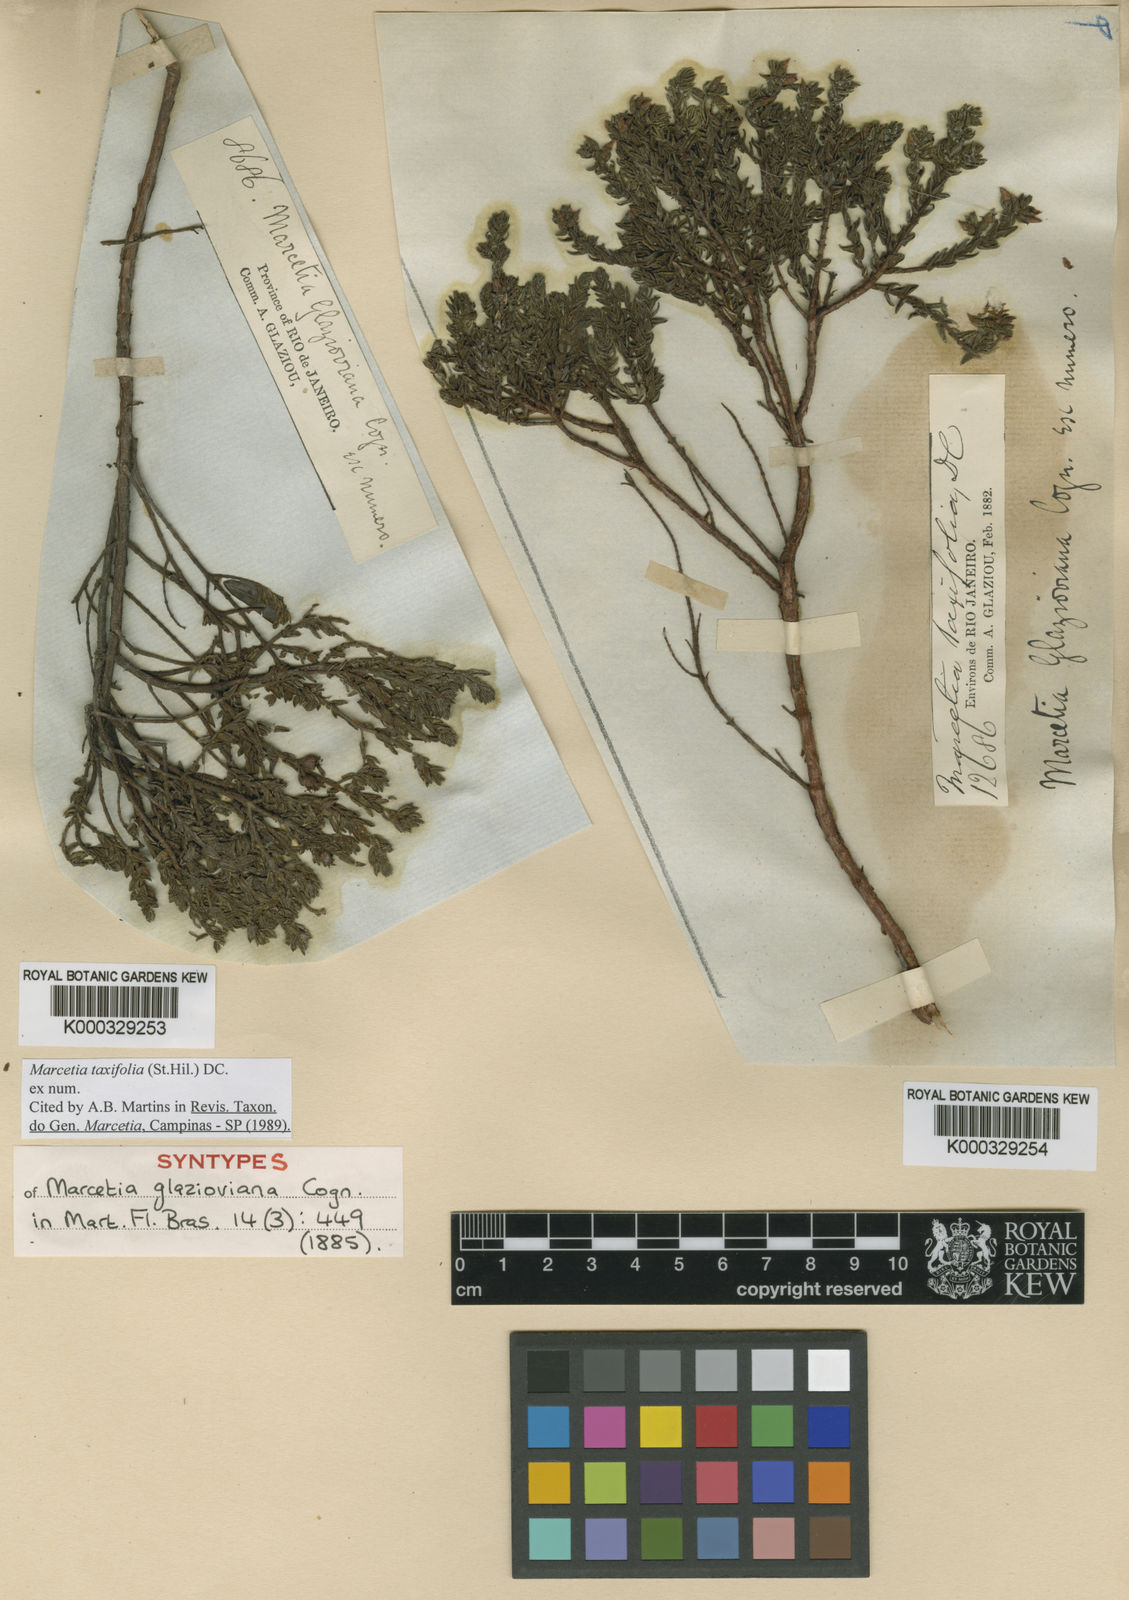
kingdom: Plantae
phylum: Tracheophyta
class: Magnoliopsida
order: Myrtales
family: Melastomataceae
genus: Marcetia
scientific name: Marcetia taxifolia
